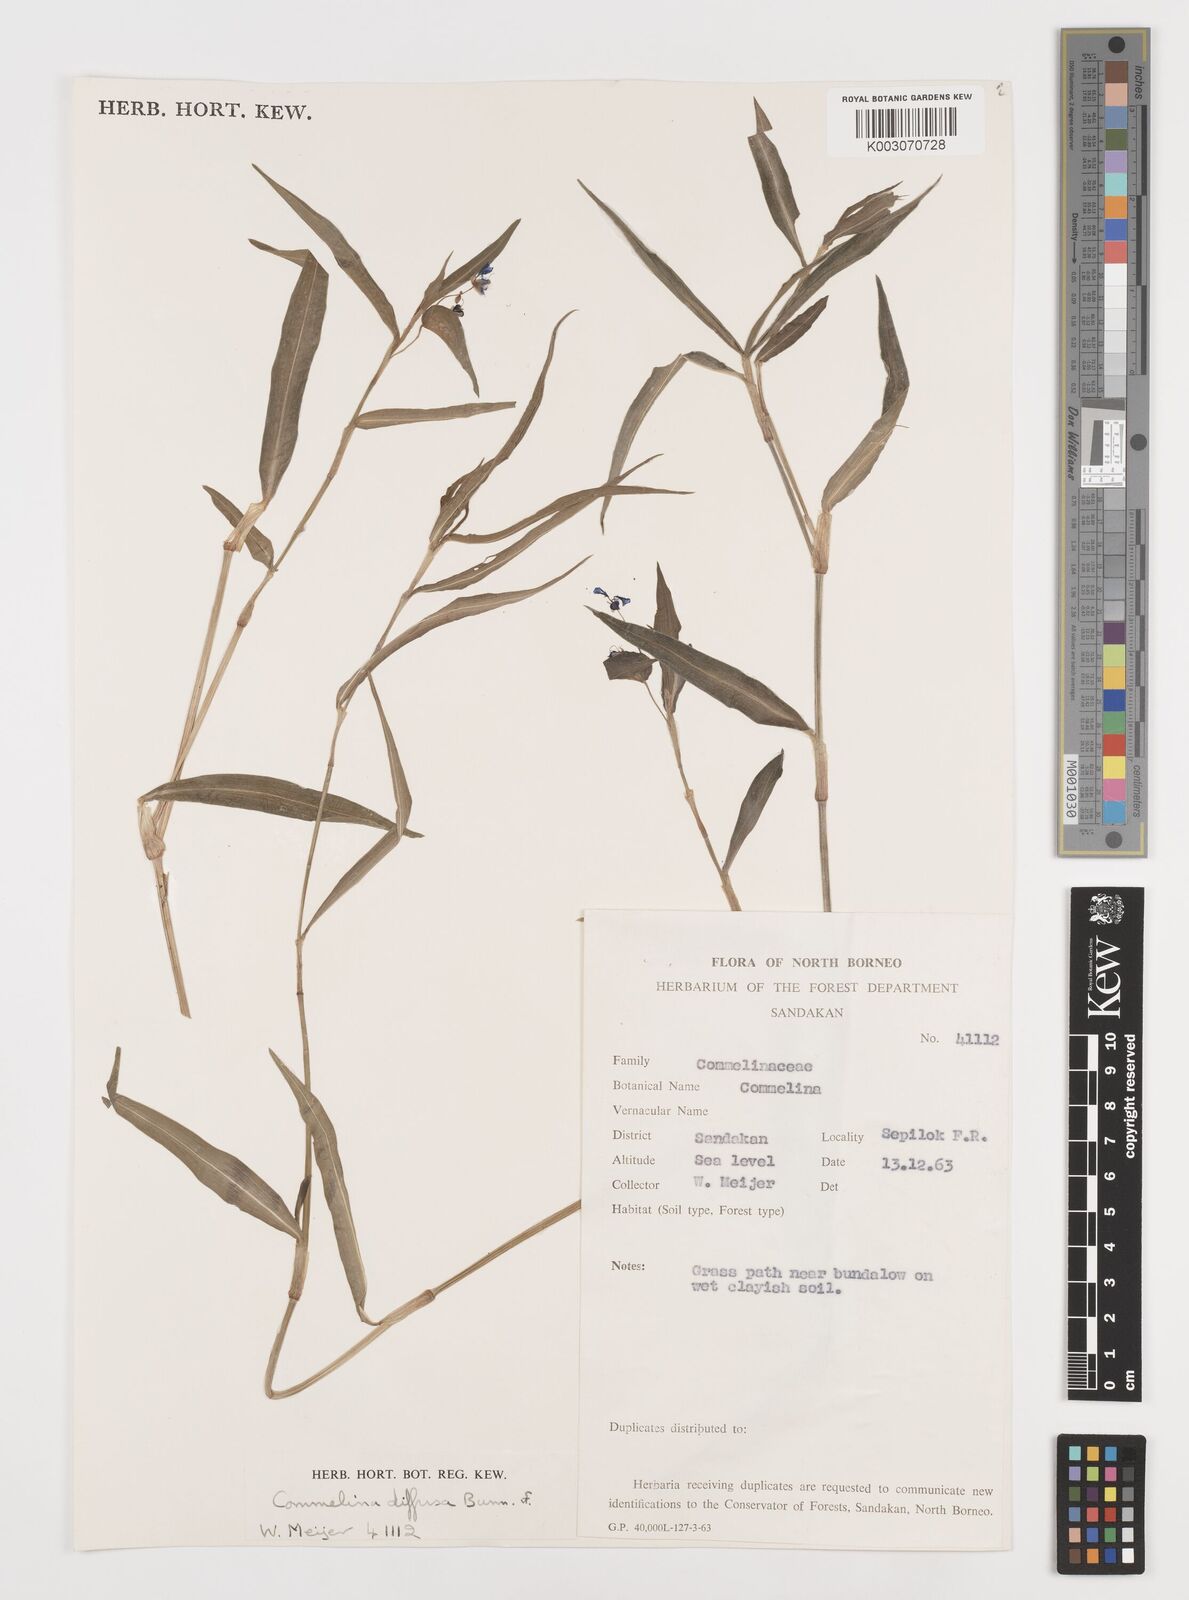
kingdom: Plantae
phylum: Tracheophyta
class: Liliopsida
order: Commelinales
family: Commelinaceae
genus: Commelina
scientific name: Commelina clavata
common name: Willow leaved dayflower
